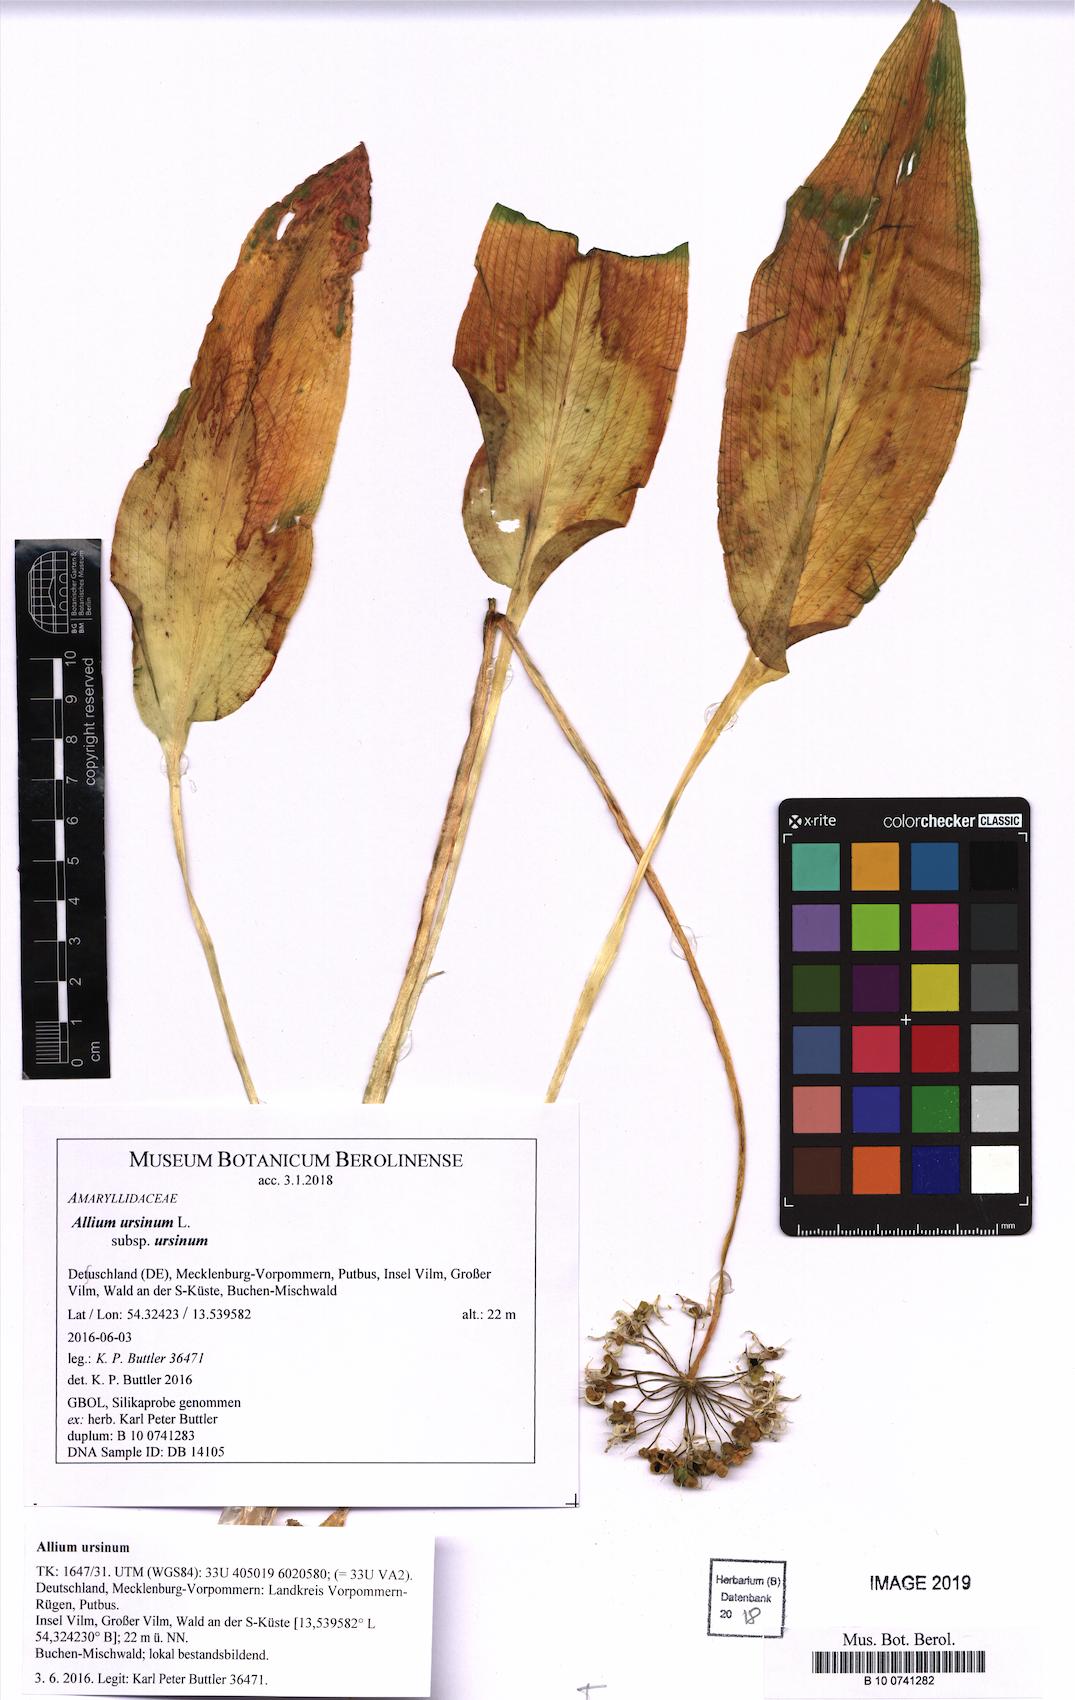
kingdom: Plantae
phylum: Tracheophyta
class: Liliopsida
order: Asparagales
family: Amaryllidaceae
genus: Allium
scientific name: Allium ursinum
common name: Ramsons
